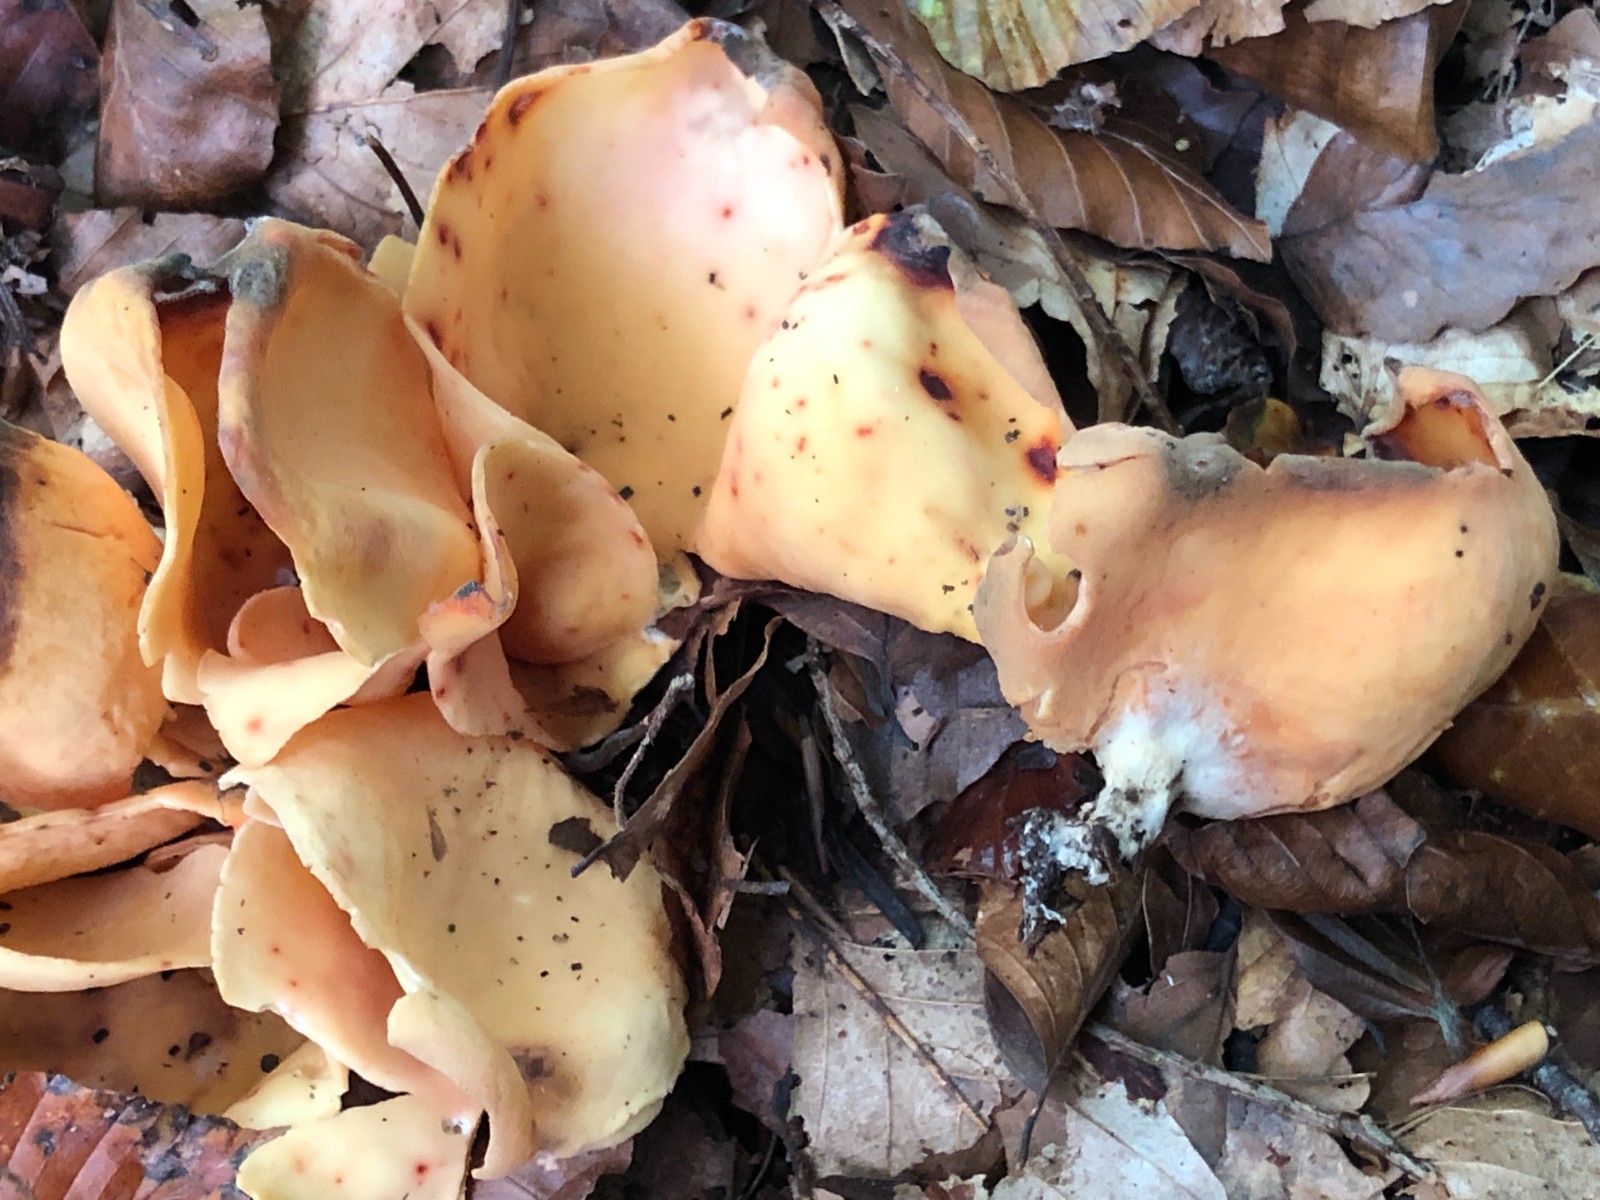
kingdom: Fungi
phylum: Ascomycota
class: Pezizomycetes
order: Pezizales
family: Otideaceae
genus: Otidea
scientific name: Otidea onotica
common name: æsel-ørebæger
